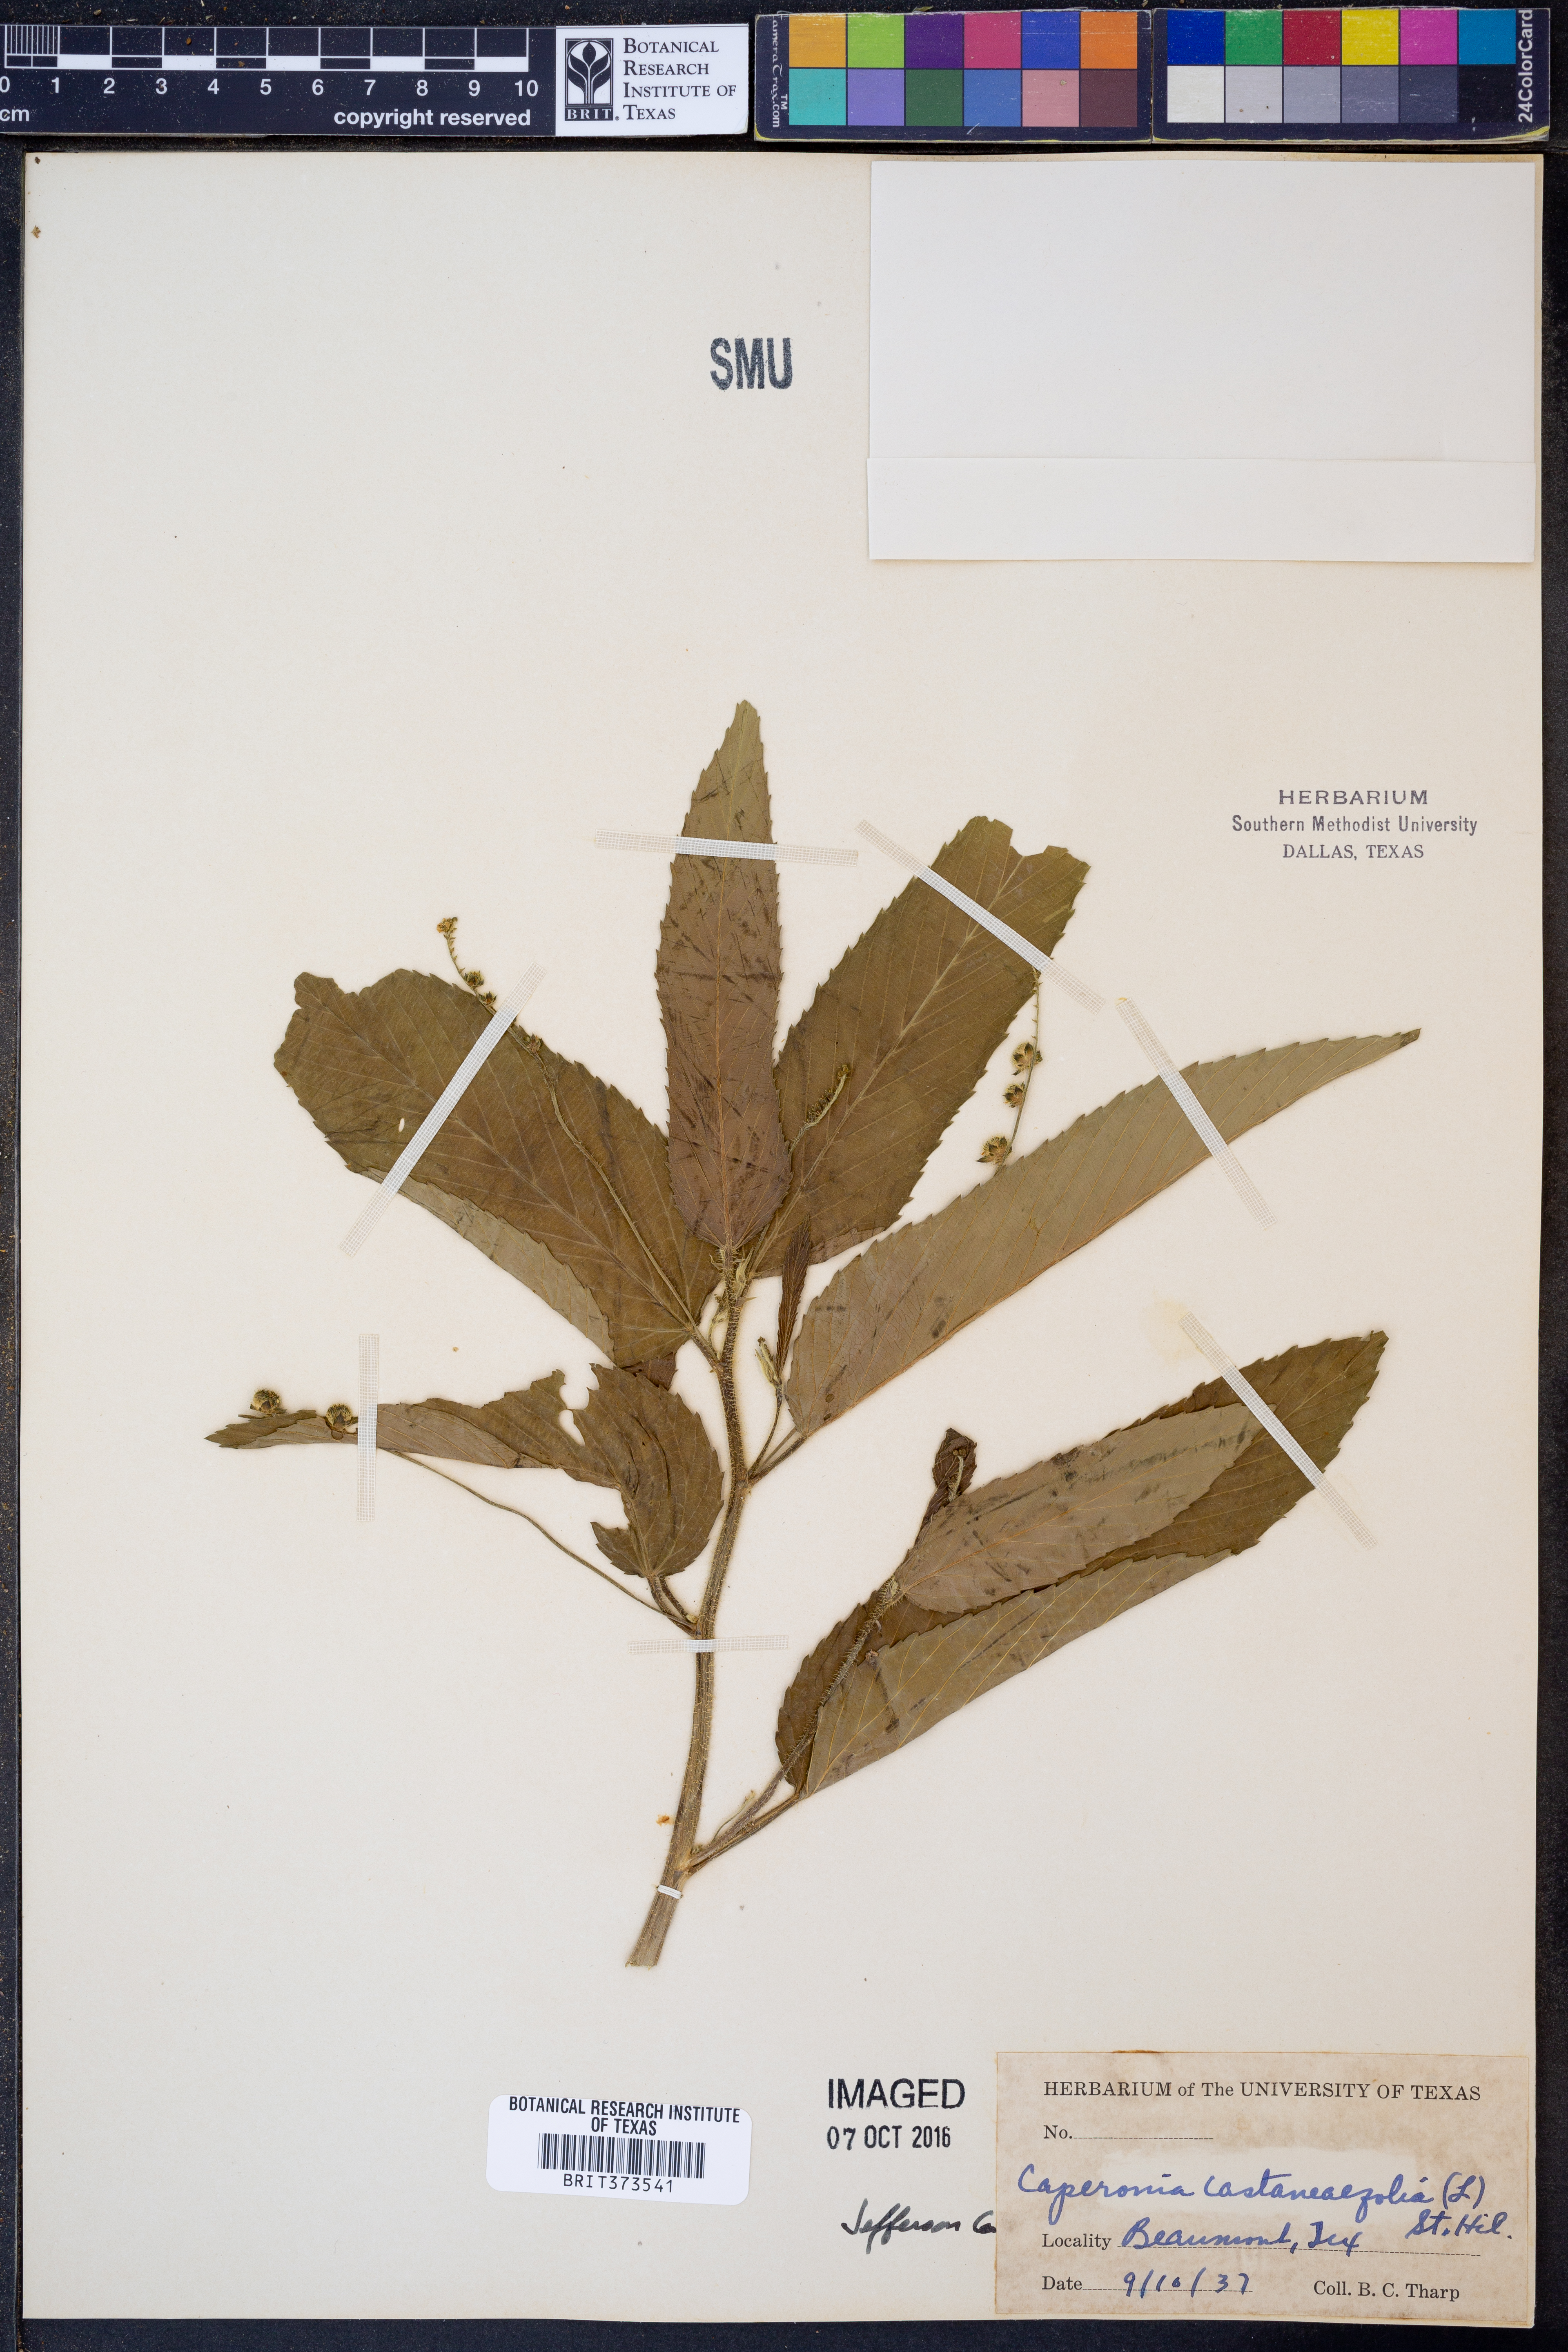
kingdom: Plantae
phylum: Tracheophyta
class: Magnoliopsida
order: Malpighiales
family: Euphorbiaceae
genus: Caperonia
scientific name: Caperonia palustris
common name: Sacatrapo
